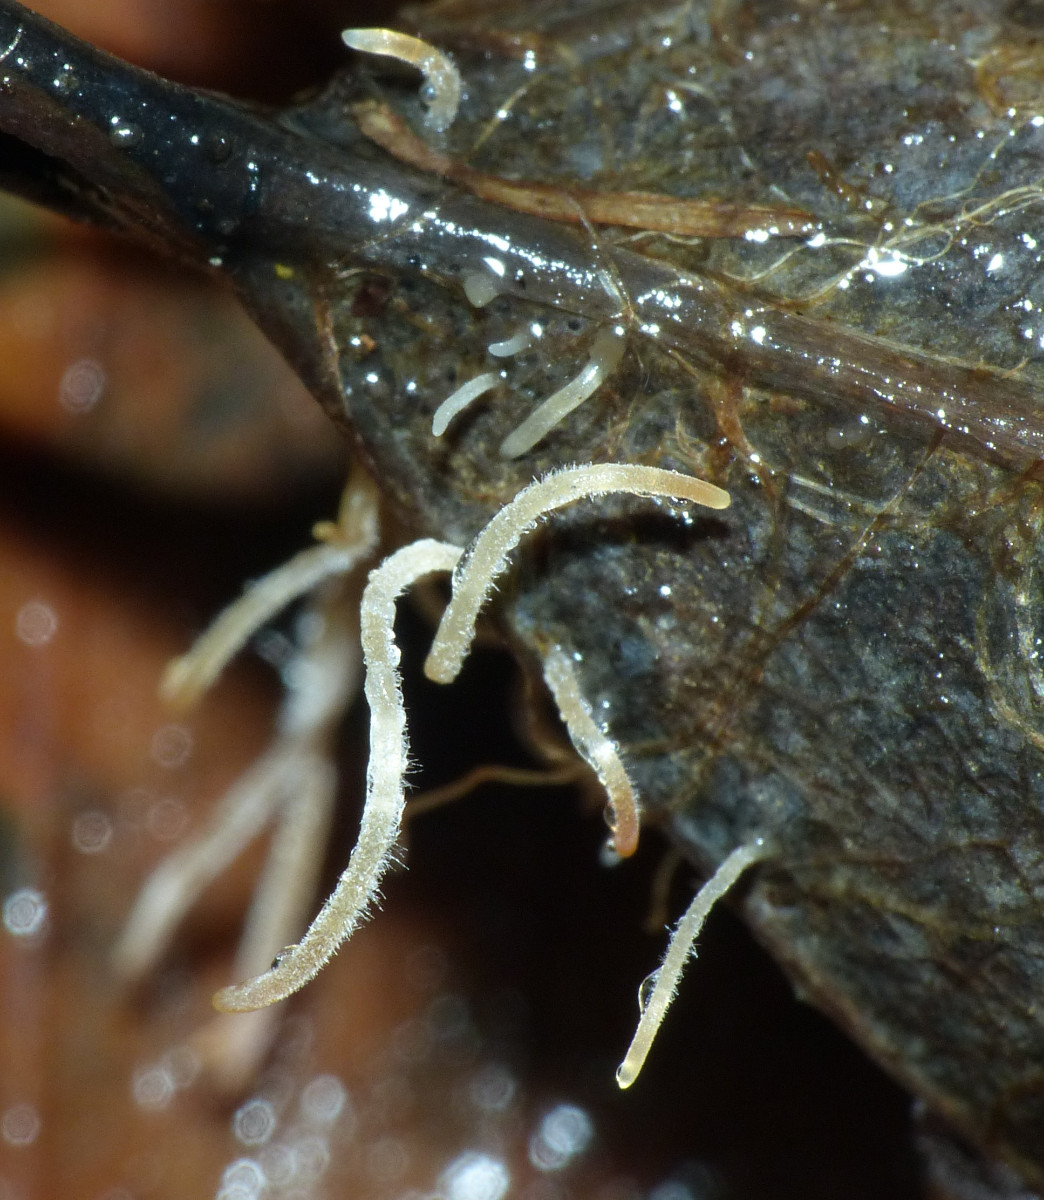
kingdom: Fungi
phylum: Basidiomycota
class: Agaricomycetes
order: Agaricales
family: Typhulaceae
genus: Typhula
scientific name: Typhula juncea
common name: trådagtig rørkølle
